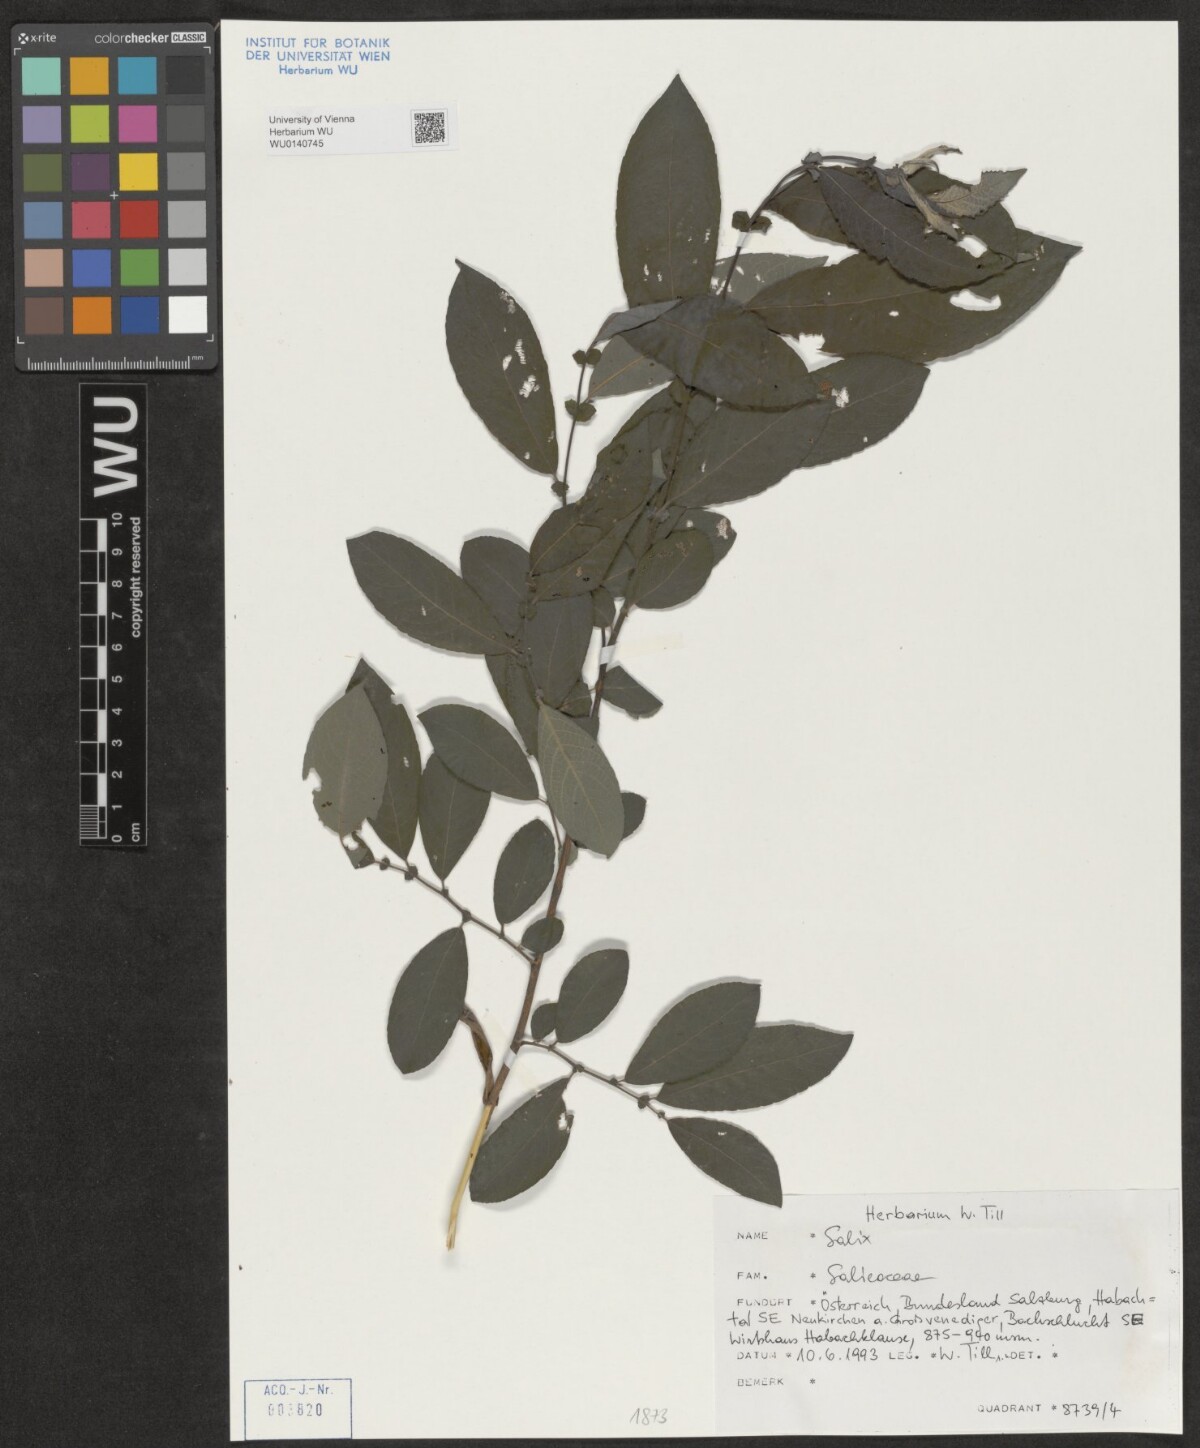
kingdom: Plantae
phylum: Tracheophyta
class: Magnoliopsida
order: Malpighiales
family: Salicaceae
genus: Salix
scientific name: Salix
